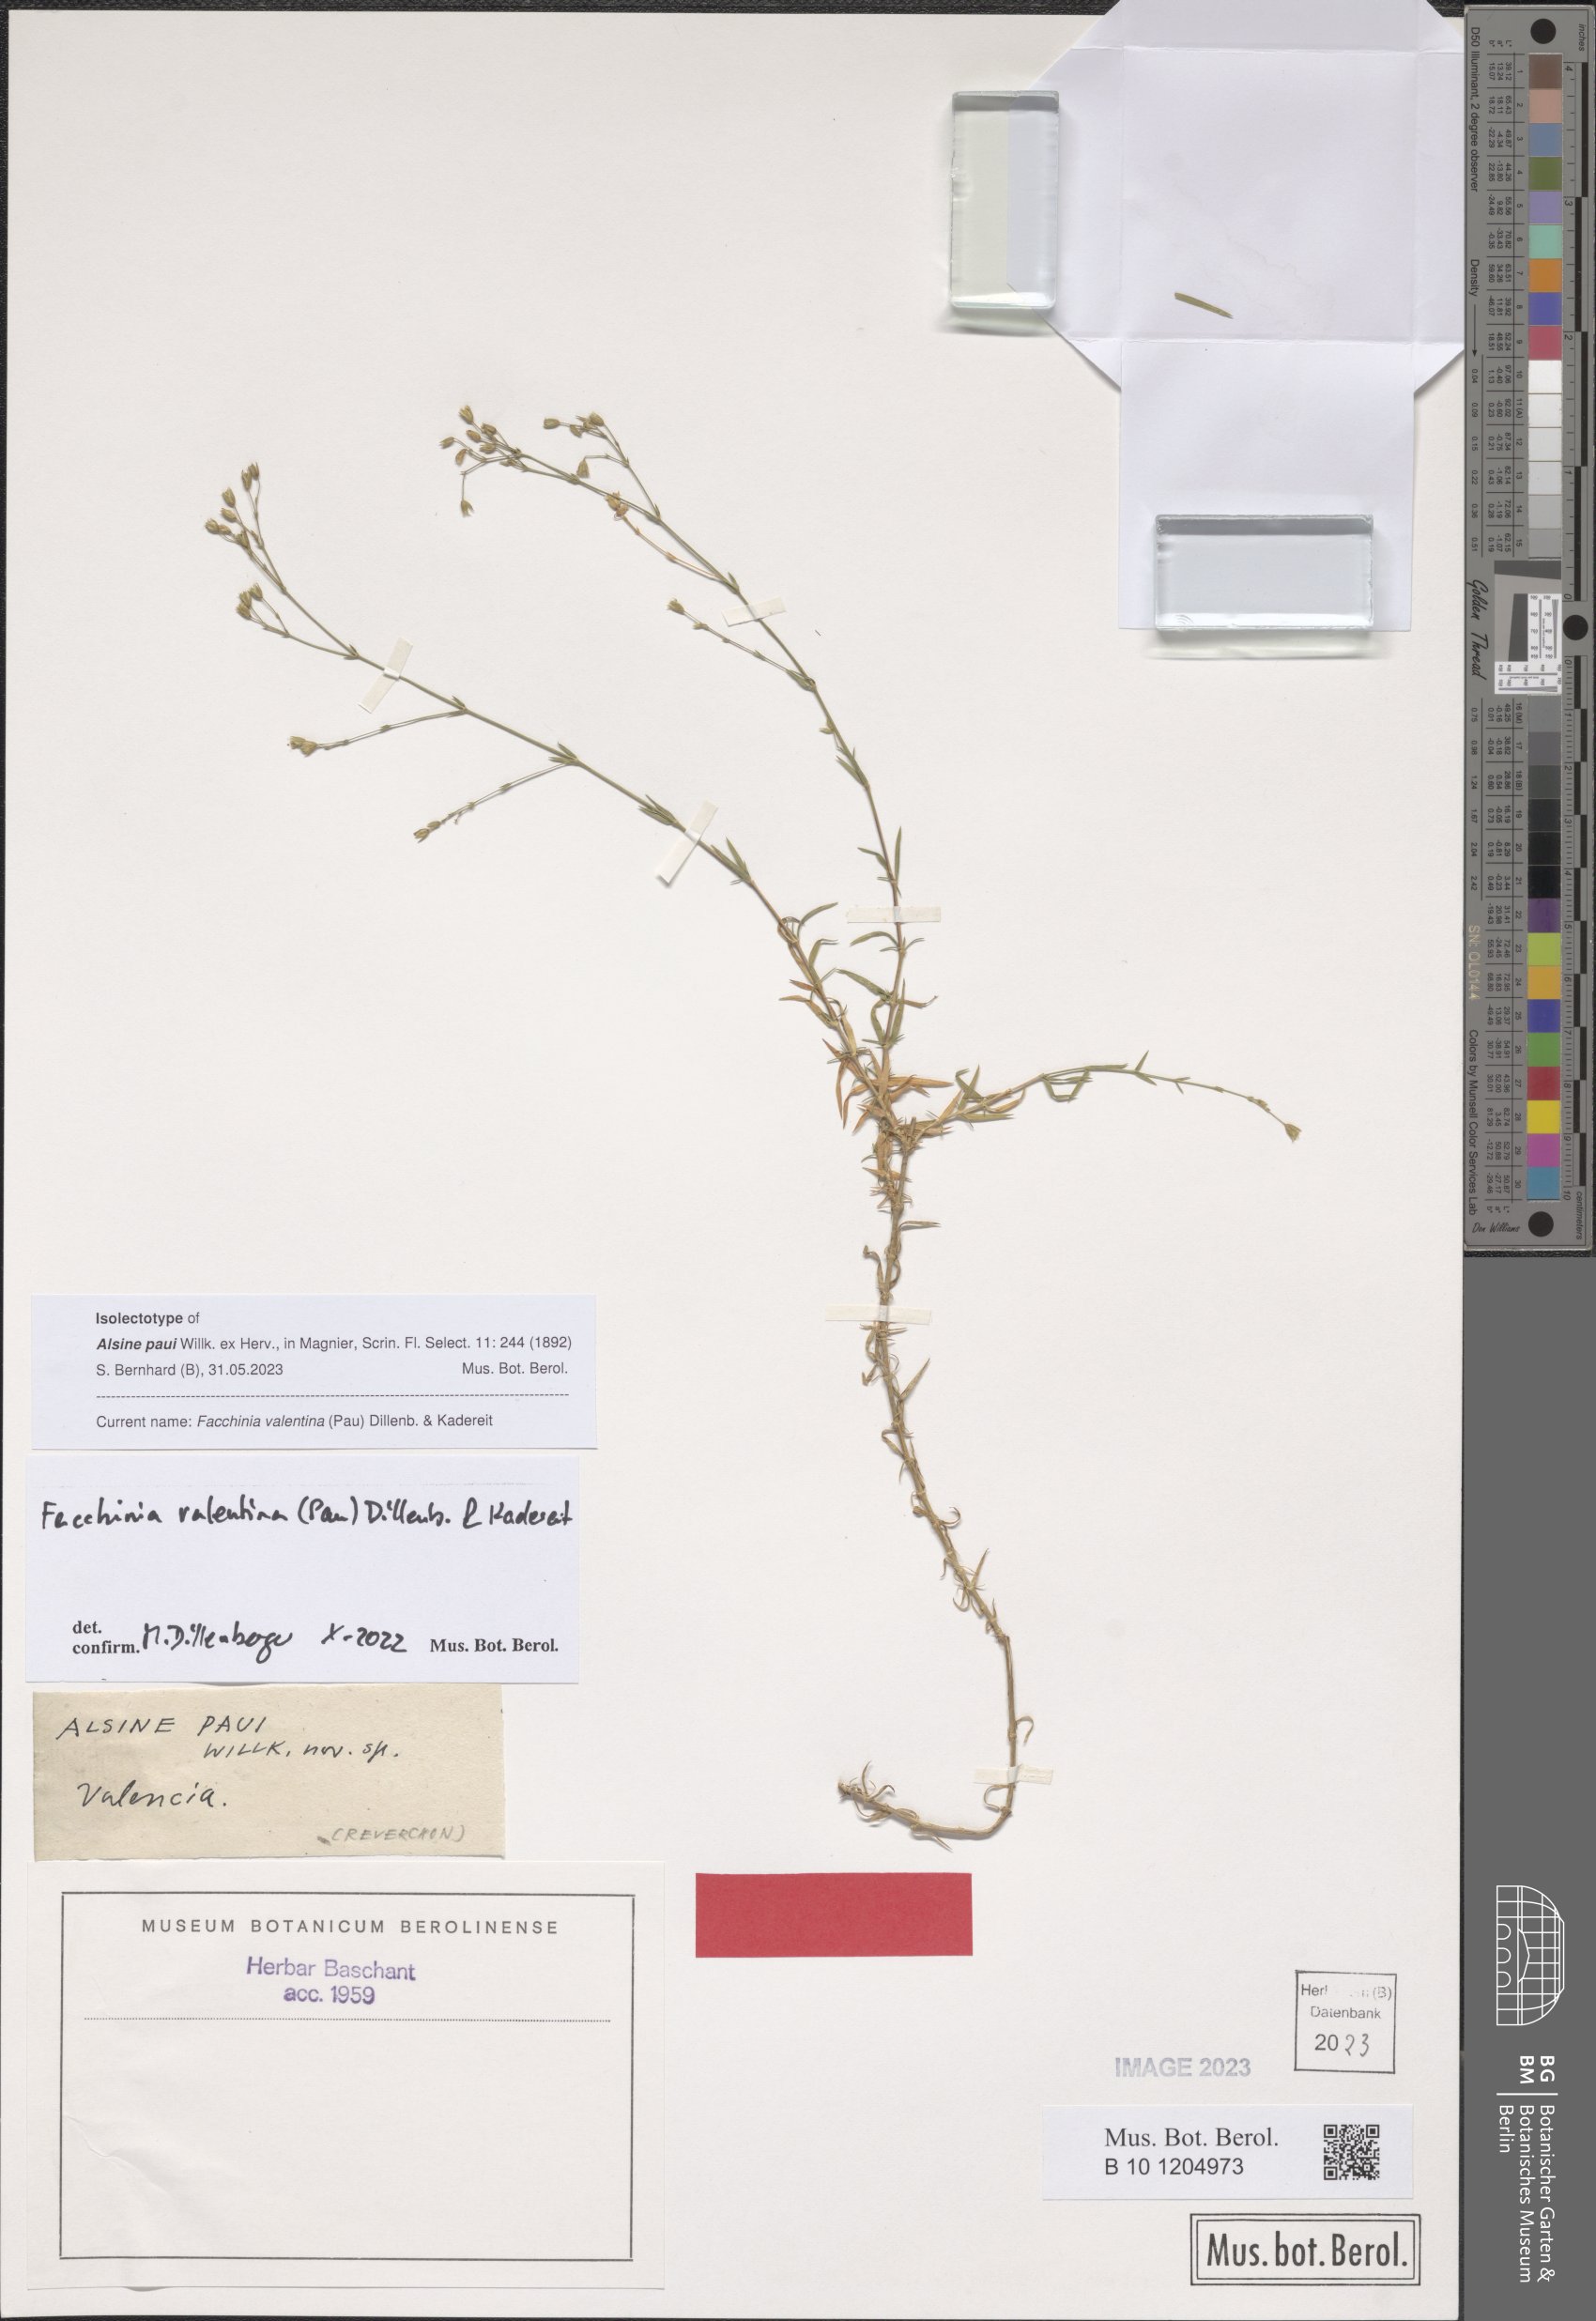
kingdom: Plantae
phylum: Tracheophyta
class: Magnoliopsida
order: Caryophyllales
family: Caryophyllaceae
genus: Facchinia
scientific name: Facchinia valentina
